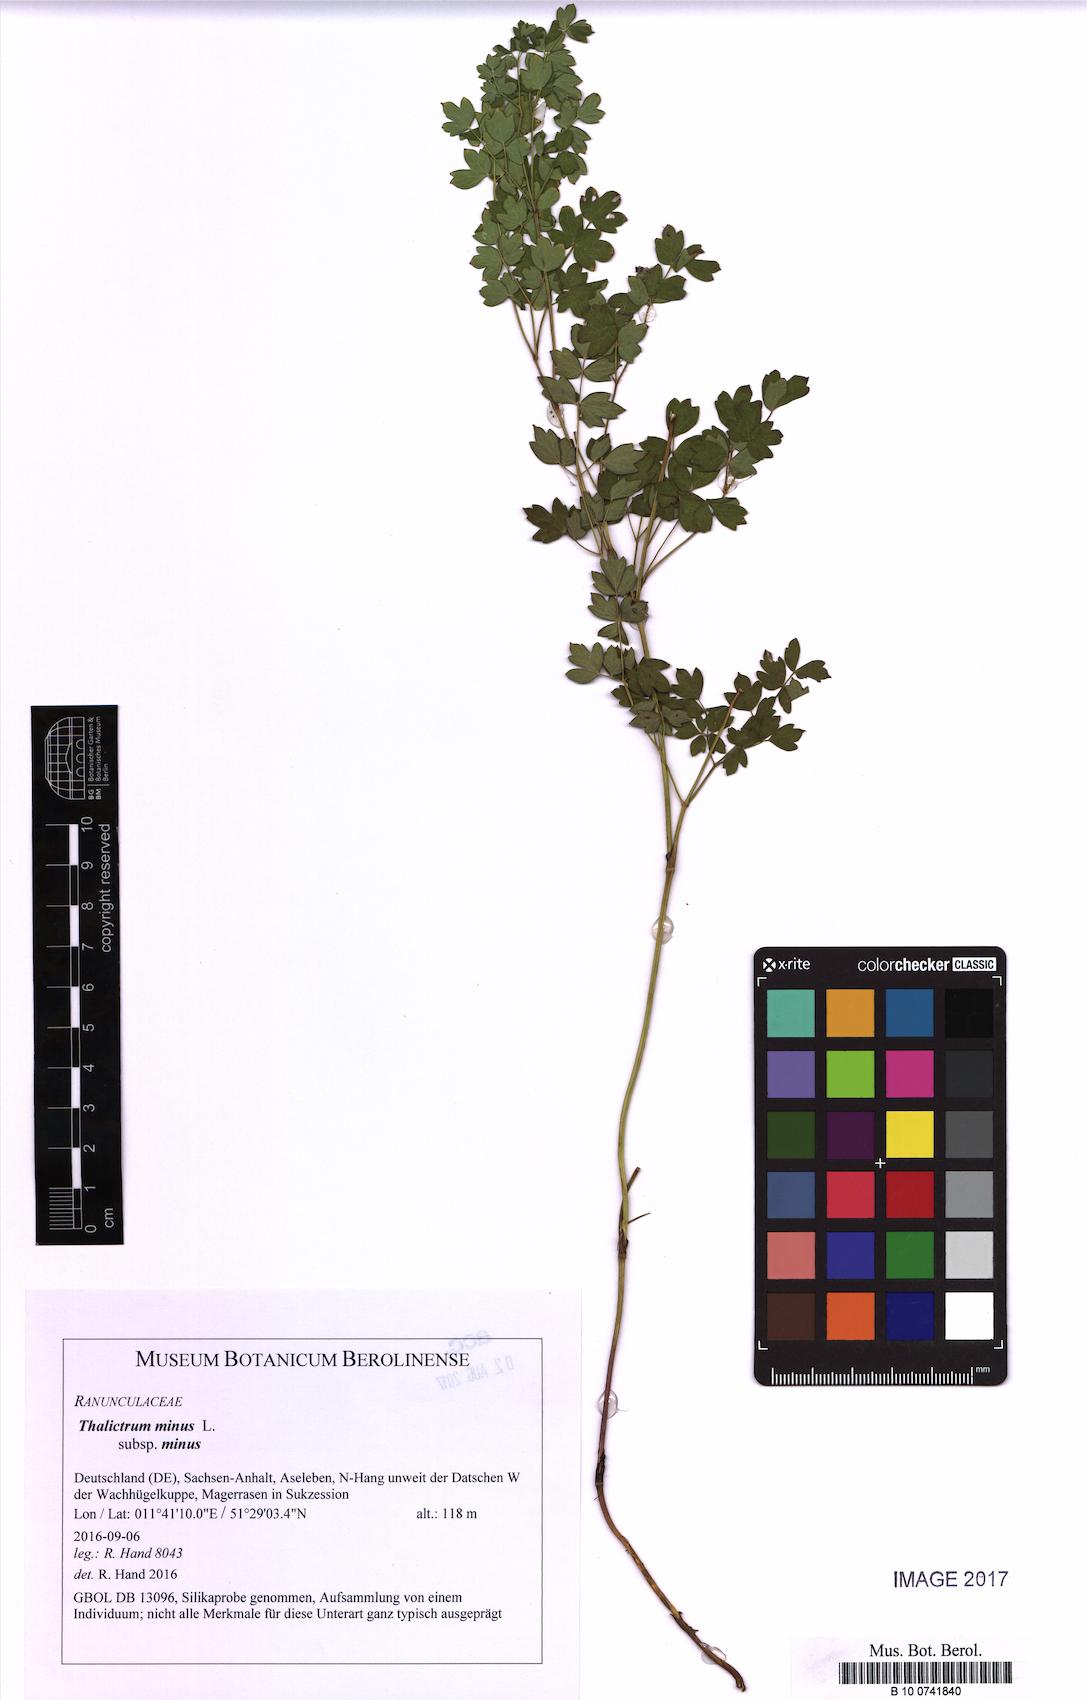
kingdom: Plantae
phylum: Tracheophyta
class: Magnoliopsida
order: Ranunculales
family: Ranunculaceae
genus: Thalictrum
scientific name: Thalictrum minus
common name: Lesser meadow-rue
